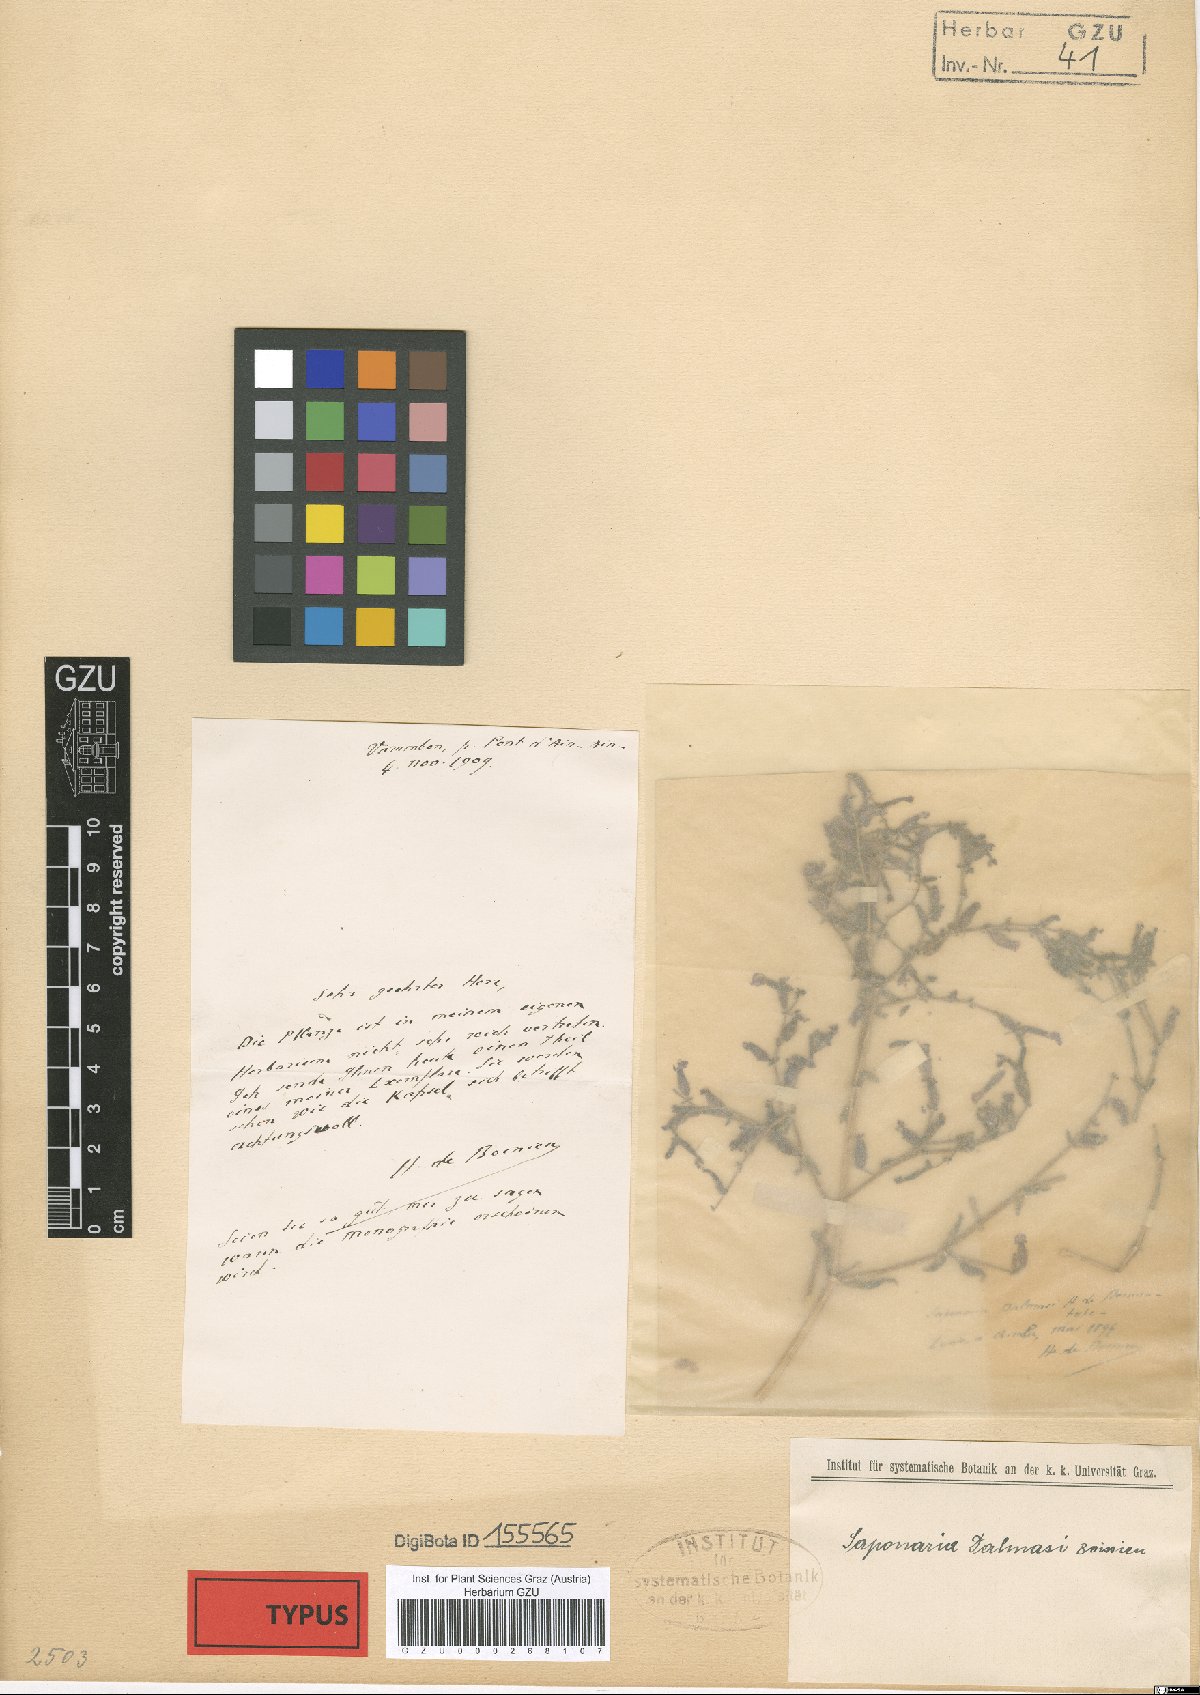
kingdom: Plantae
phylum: Tracheophyta
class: Magnoliopsida
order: Caryophyllales
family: Caryophyllaceae
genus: Saponaria
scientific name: Saponaria dalmasi
